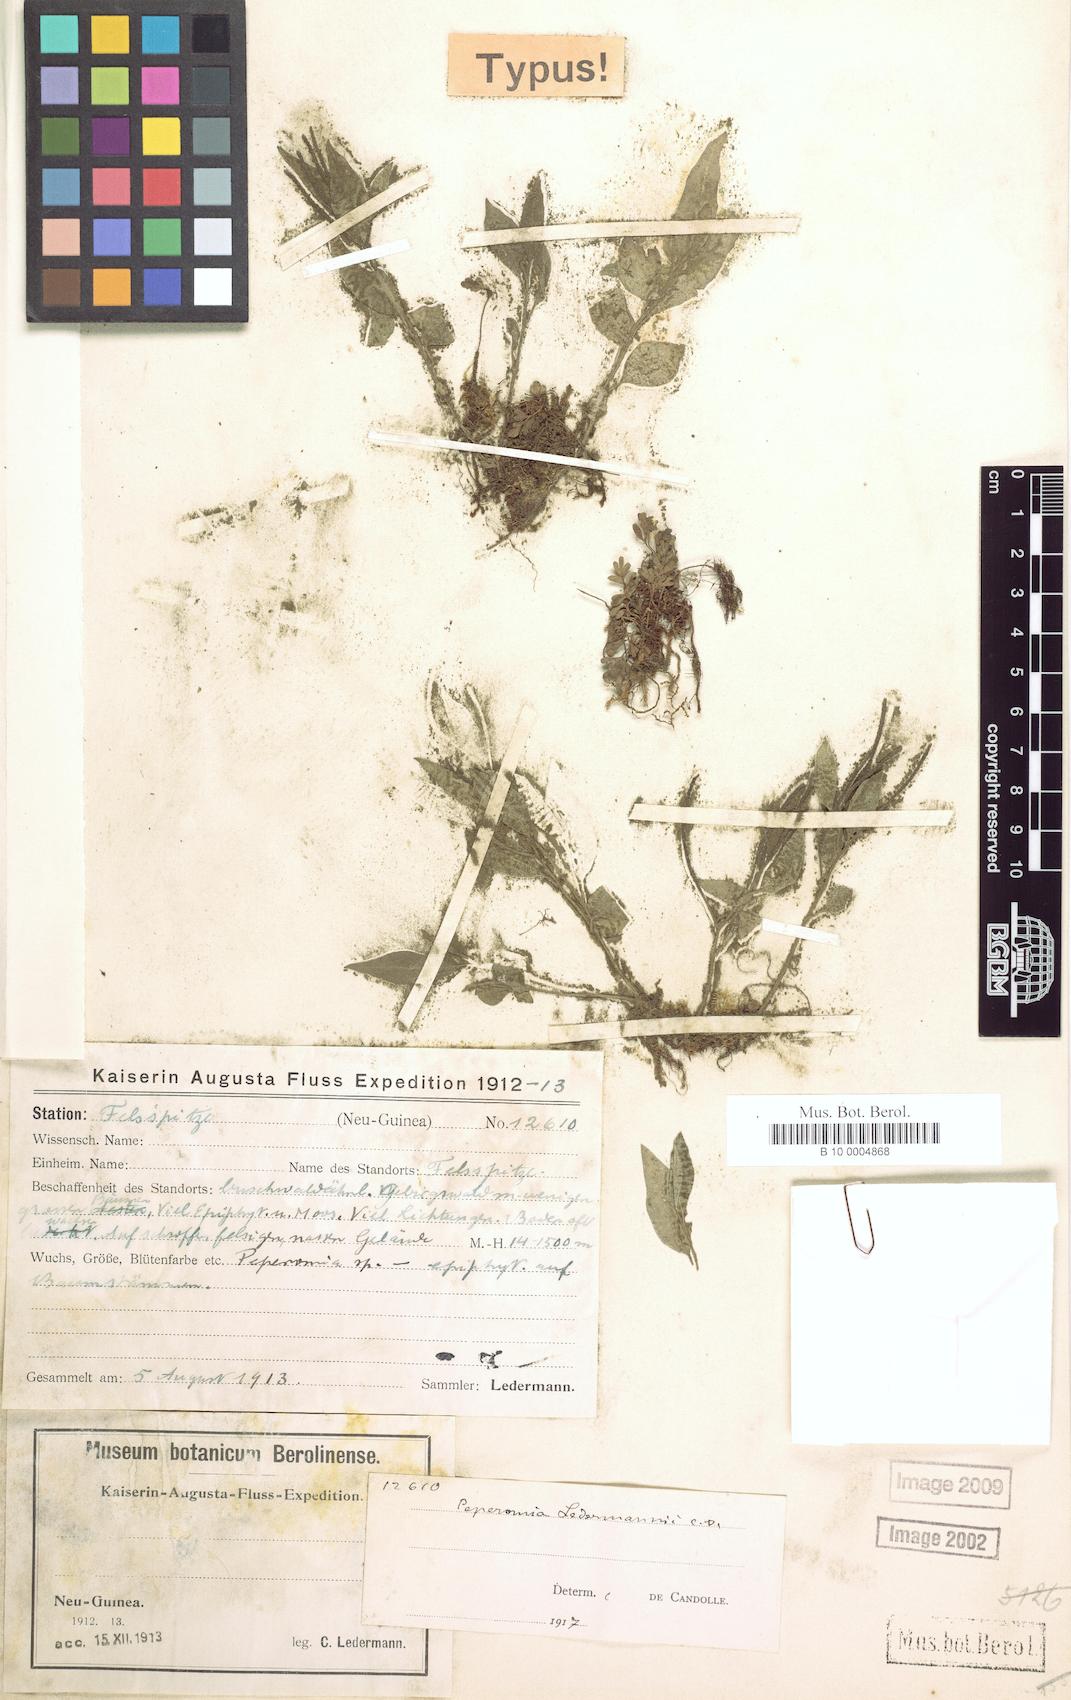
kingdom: Plantae
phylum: Tracheophyta
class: Magnoliopsida
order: Piperales
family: Piperaceae
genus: Peperomia
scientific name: Peperomia ledermannii
